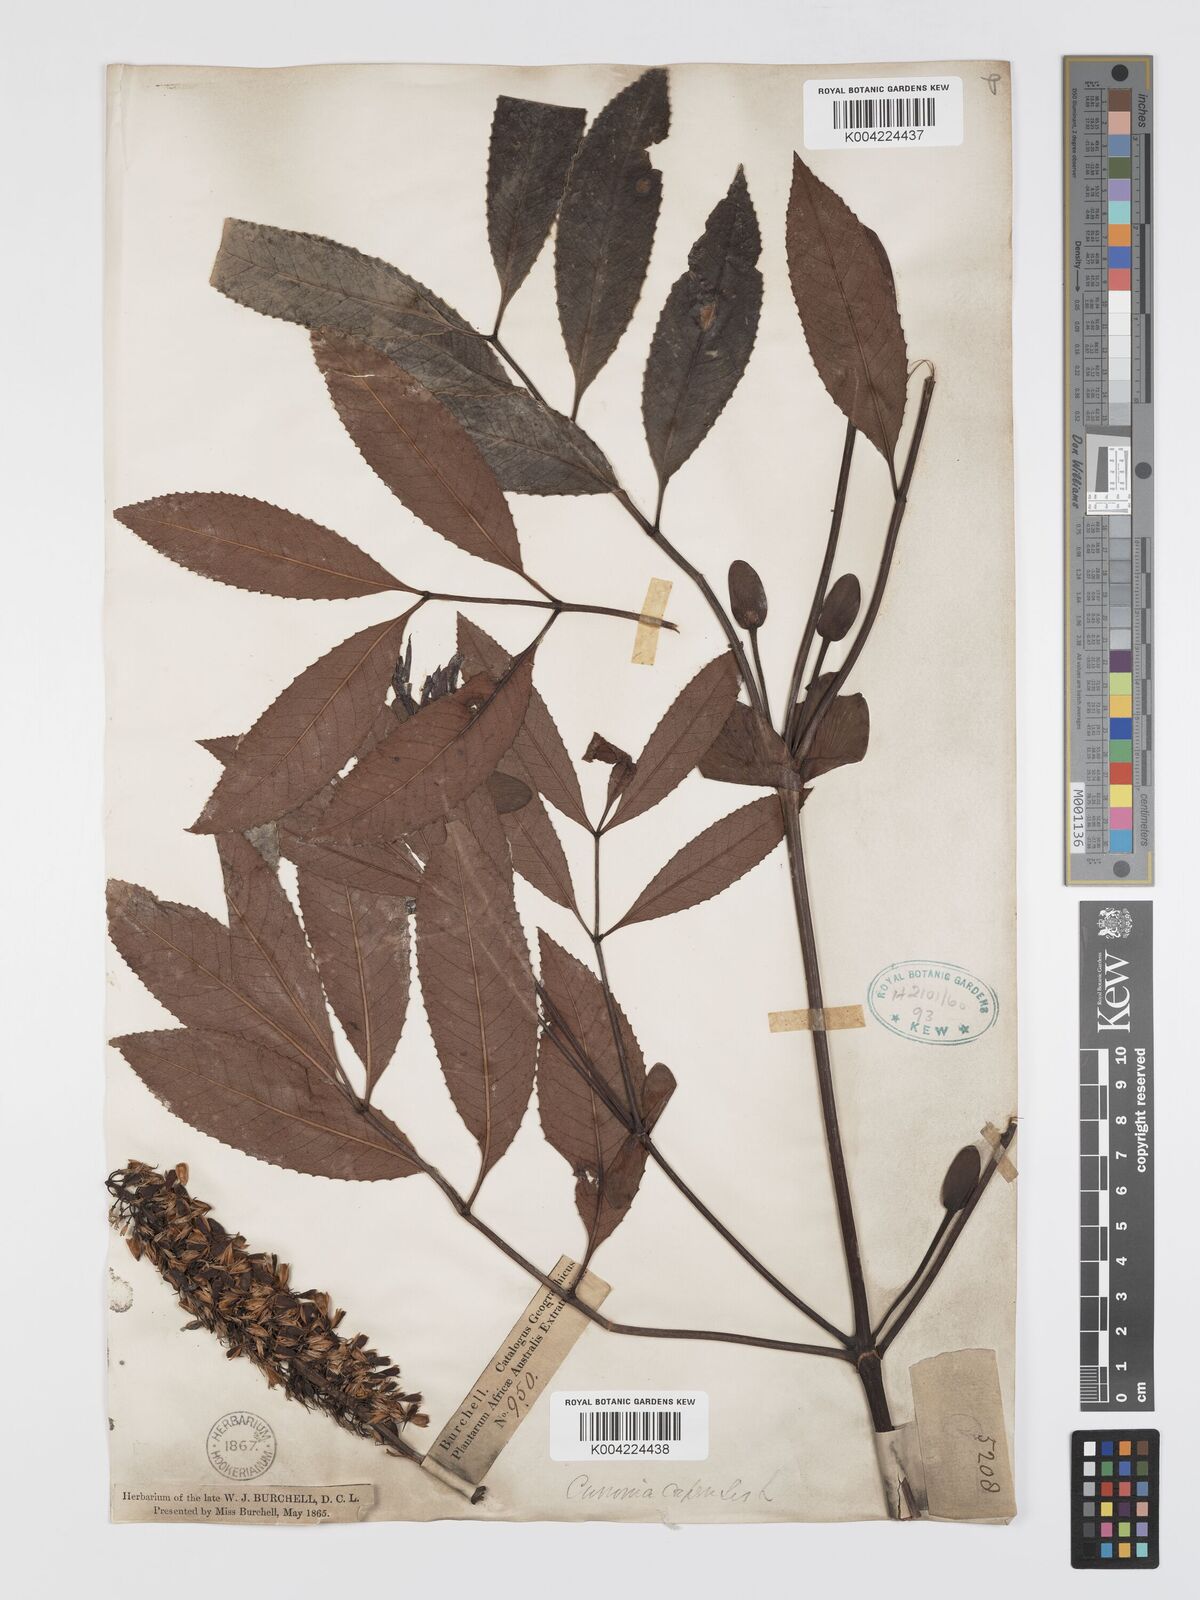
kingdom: Plantae
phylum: Tracheophyta
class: Magnoliopsida
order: Oxalidales
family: Cunoniaceae
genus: Cunonia
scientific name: Cunonia capensis
